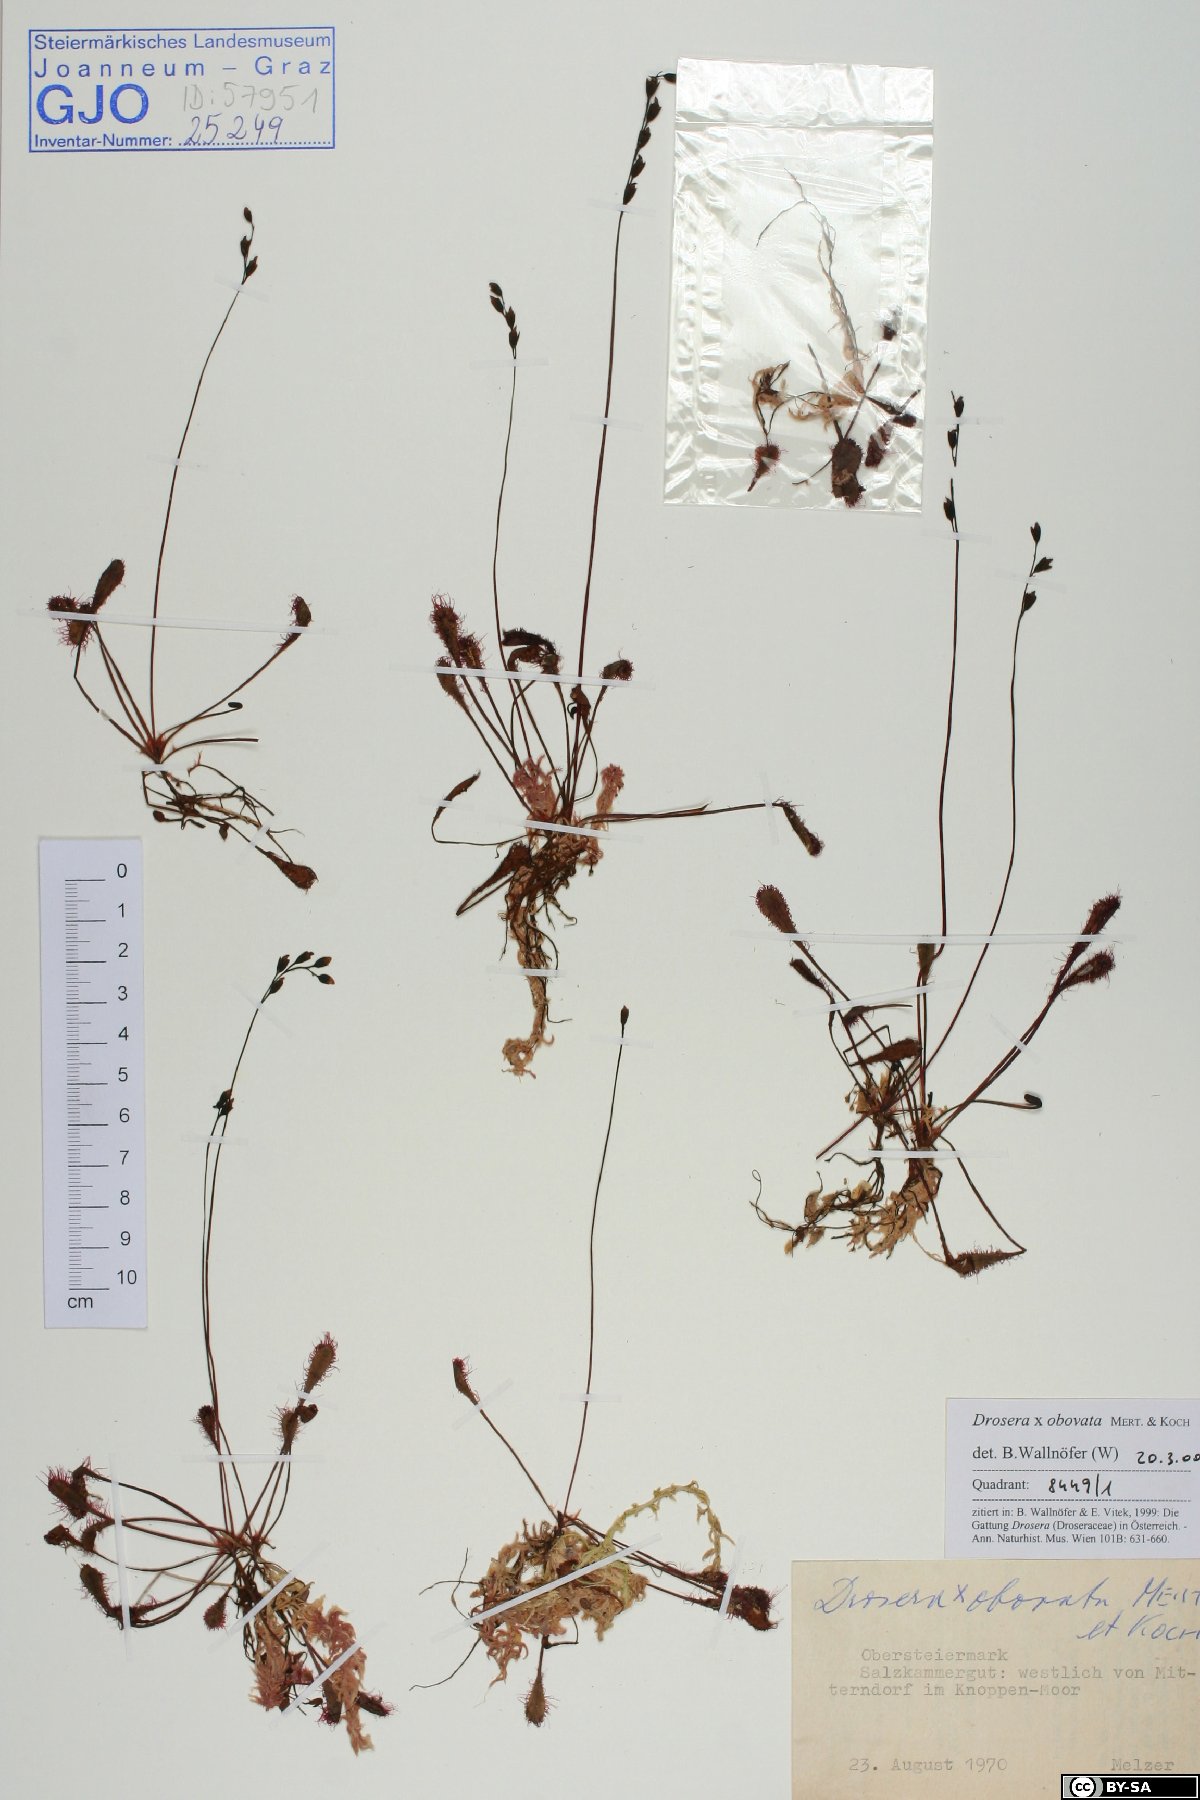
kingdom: Plantae
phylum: Tracheophyta
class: Magnoliopsida
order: Caryophyllales
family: Droseraceae
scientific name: Droseraceae
